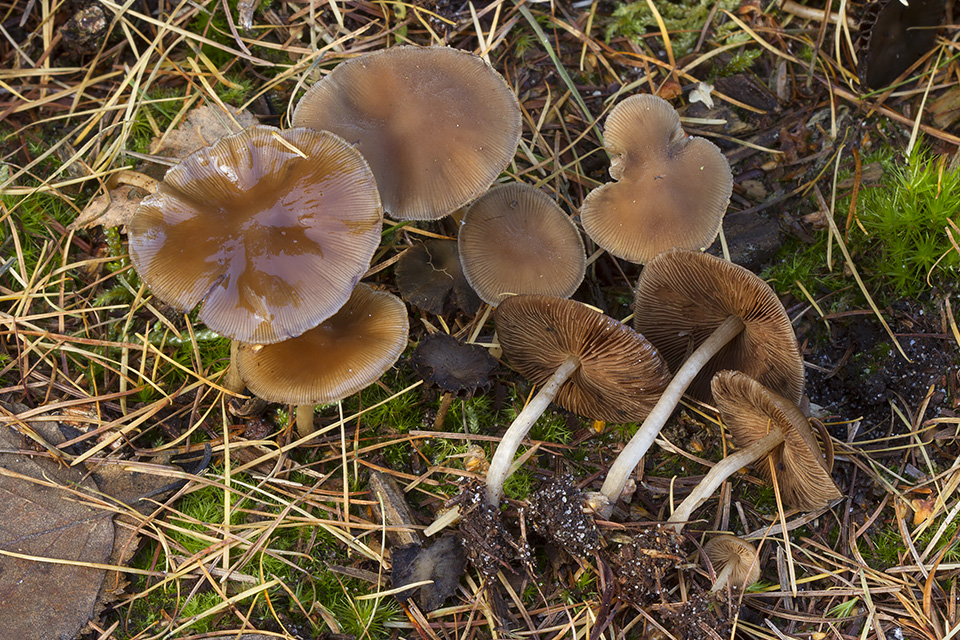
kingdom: Fungi
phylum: Basidiomycota
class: Agaricomycetes
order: Agaricales
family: Psathyrellaceae
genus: Psathyrella
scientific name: Psathyrella laevissima
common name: Slender stump brittlestem
